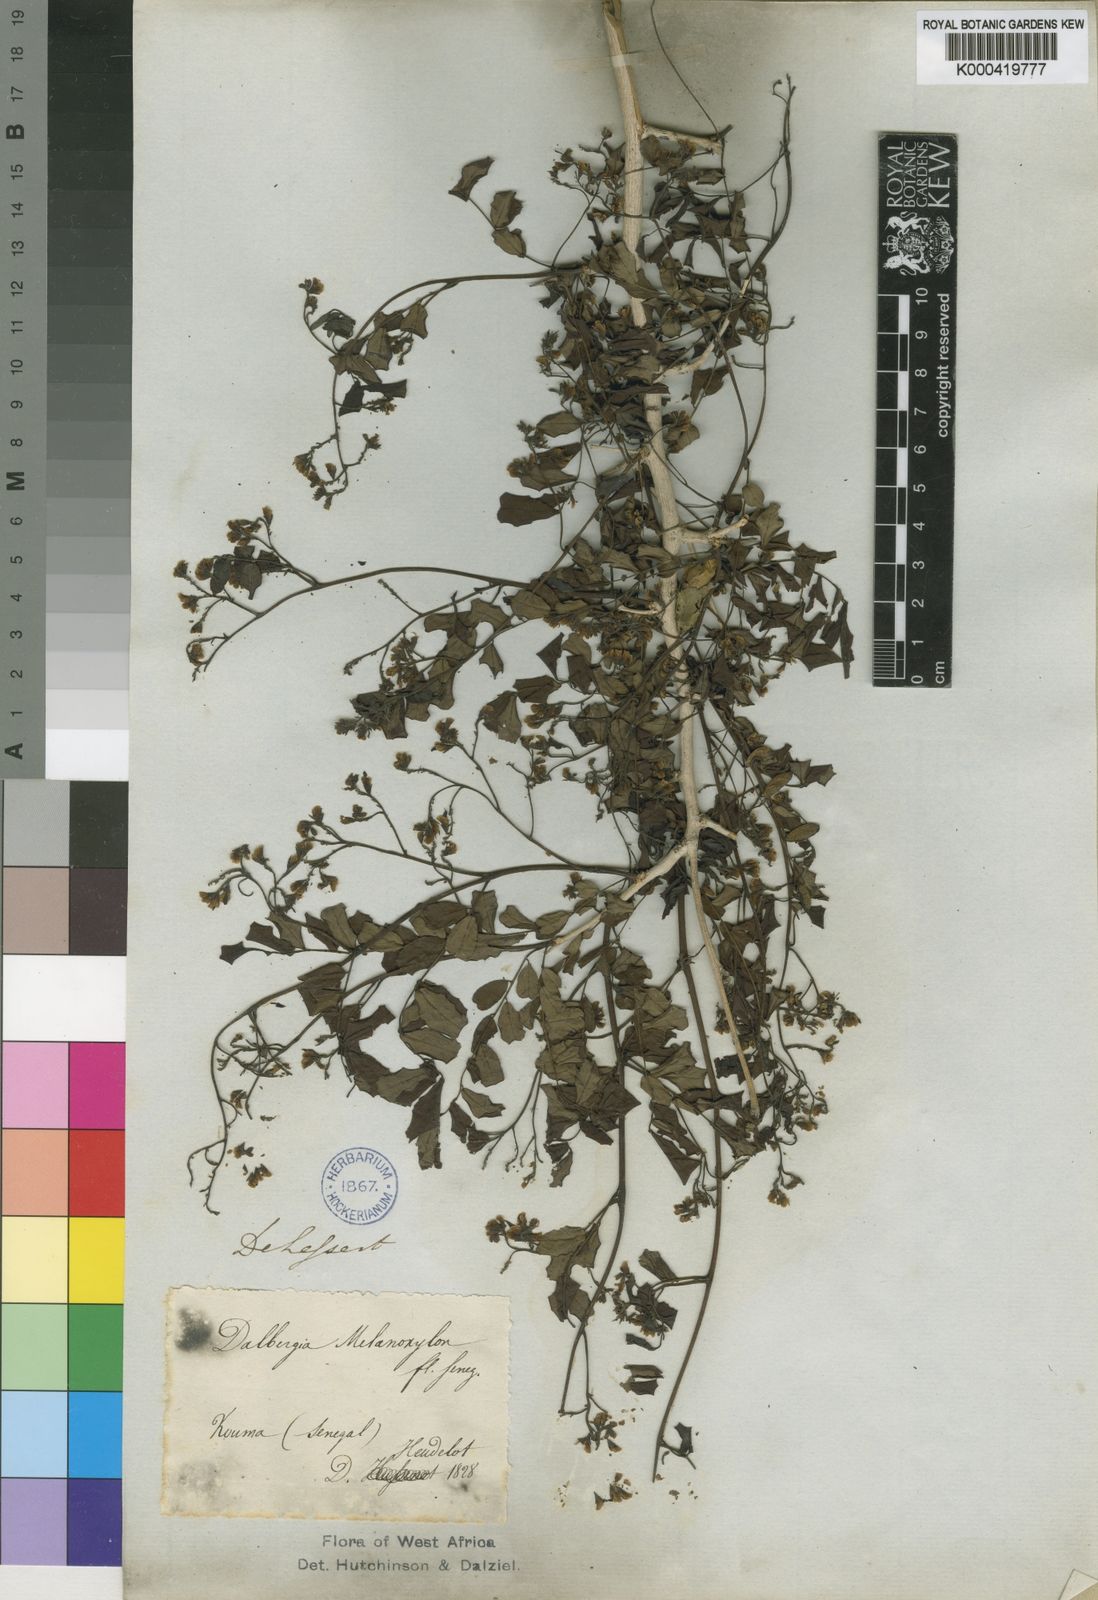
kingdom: Plantae
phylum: Tracheophyta
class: Magnoliopsida
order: Fabales
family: Fabaceae
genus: Dalbergia
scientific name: Dalbergia melanoxylon
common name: African blackwood
